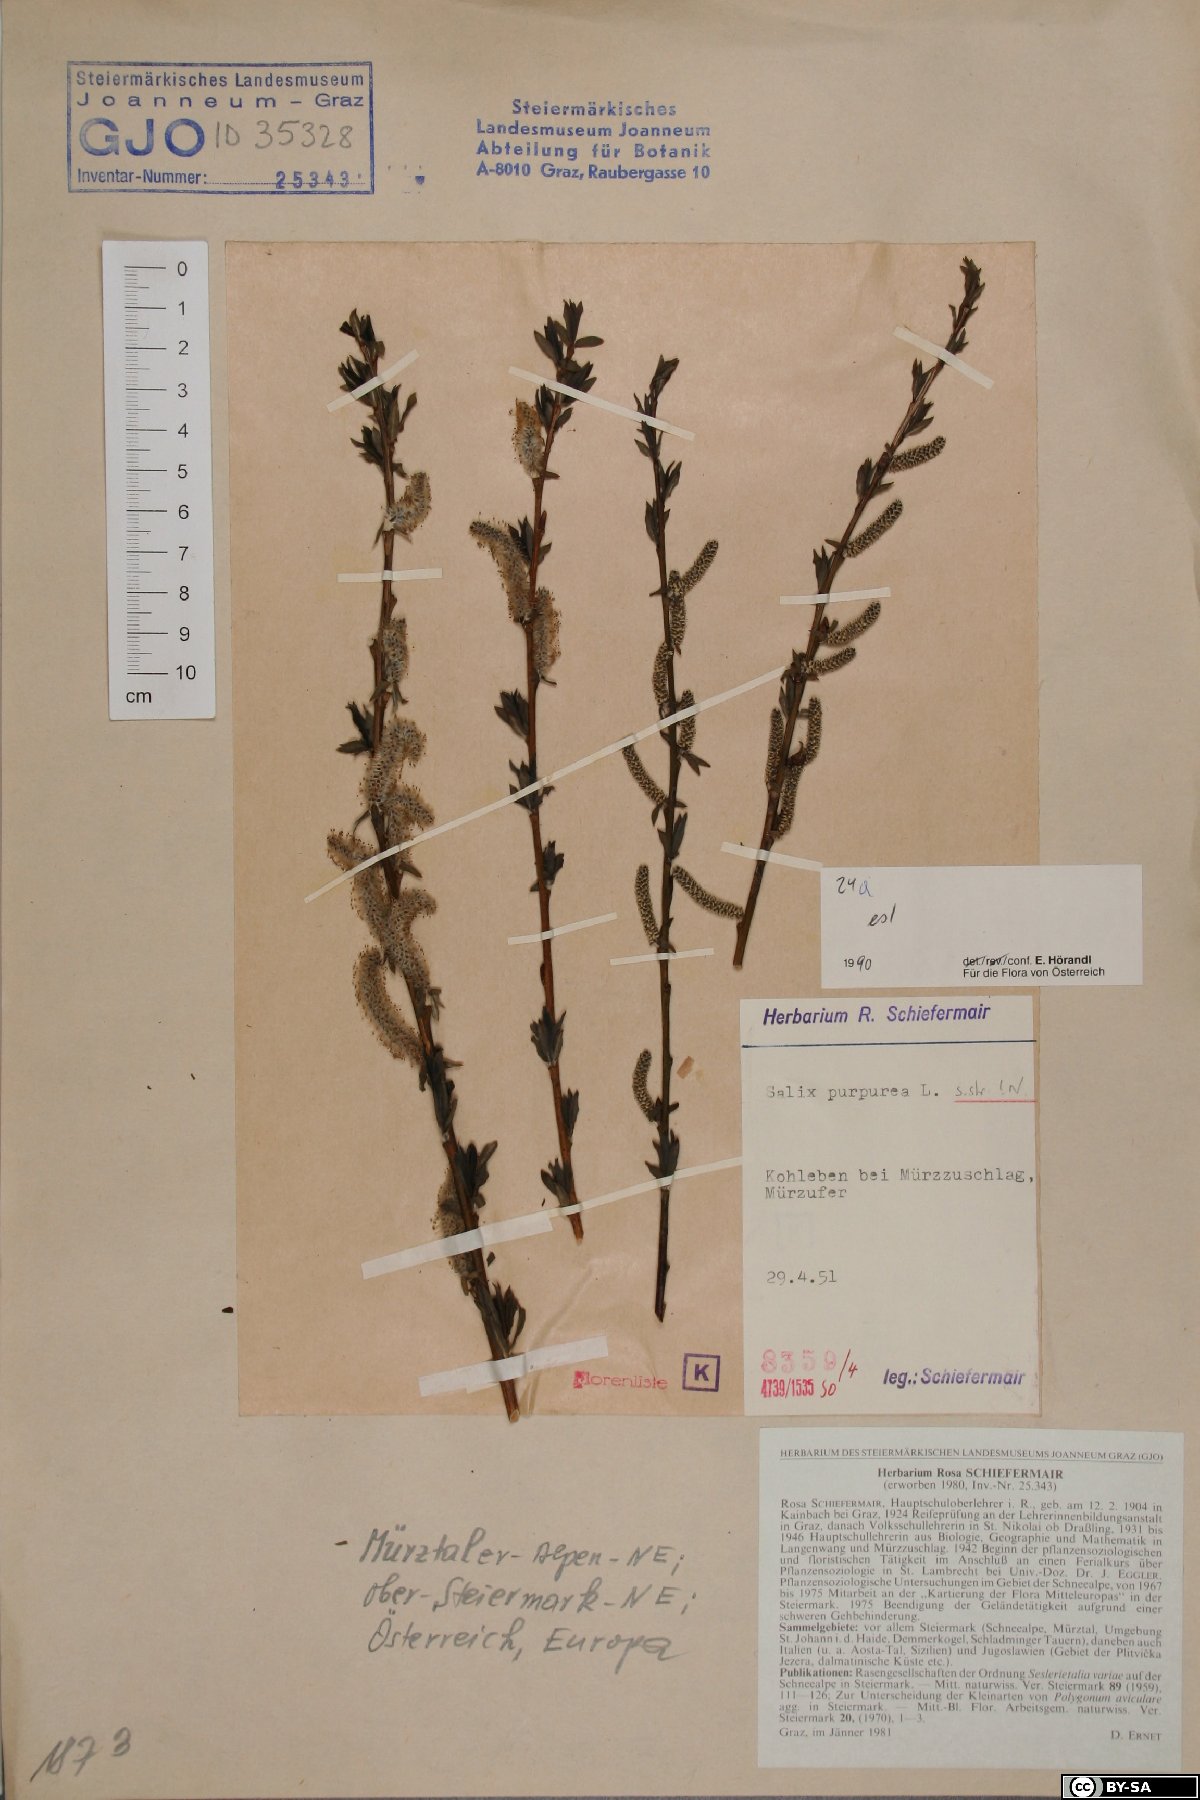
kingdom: Plantae
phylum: Tracheophyta
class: Magnoliopsida
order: Malpighiales
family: Salicaceae
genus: Salix
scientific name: Salix purpurea
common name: Purple willow
